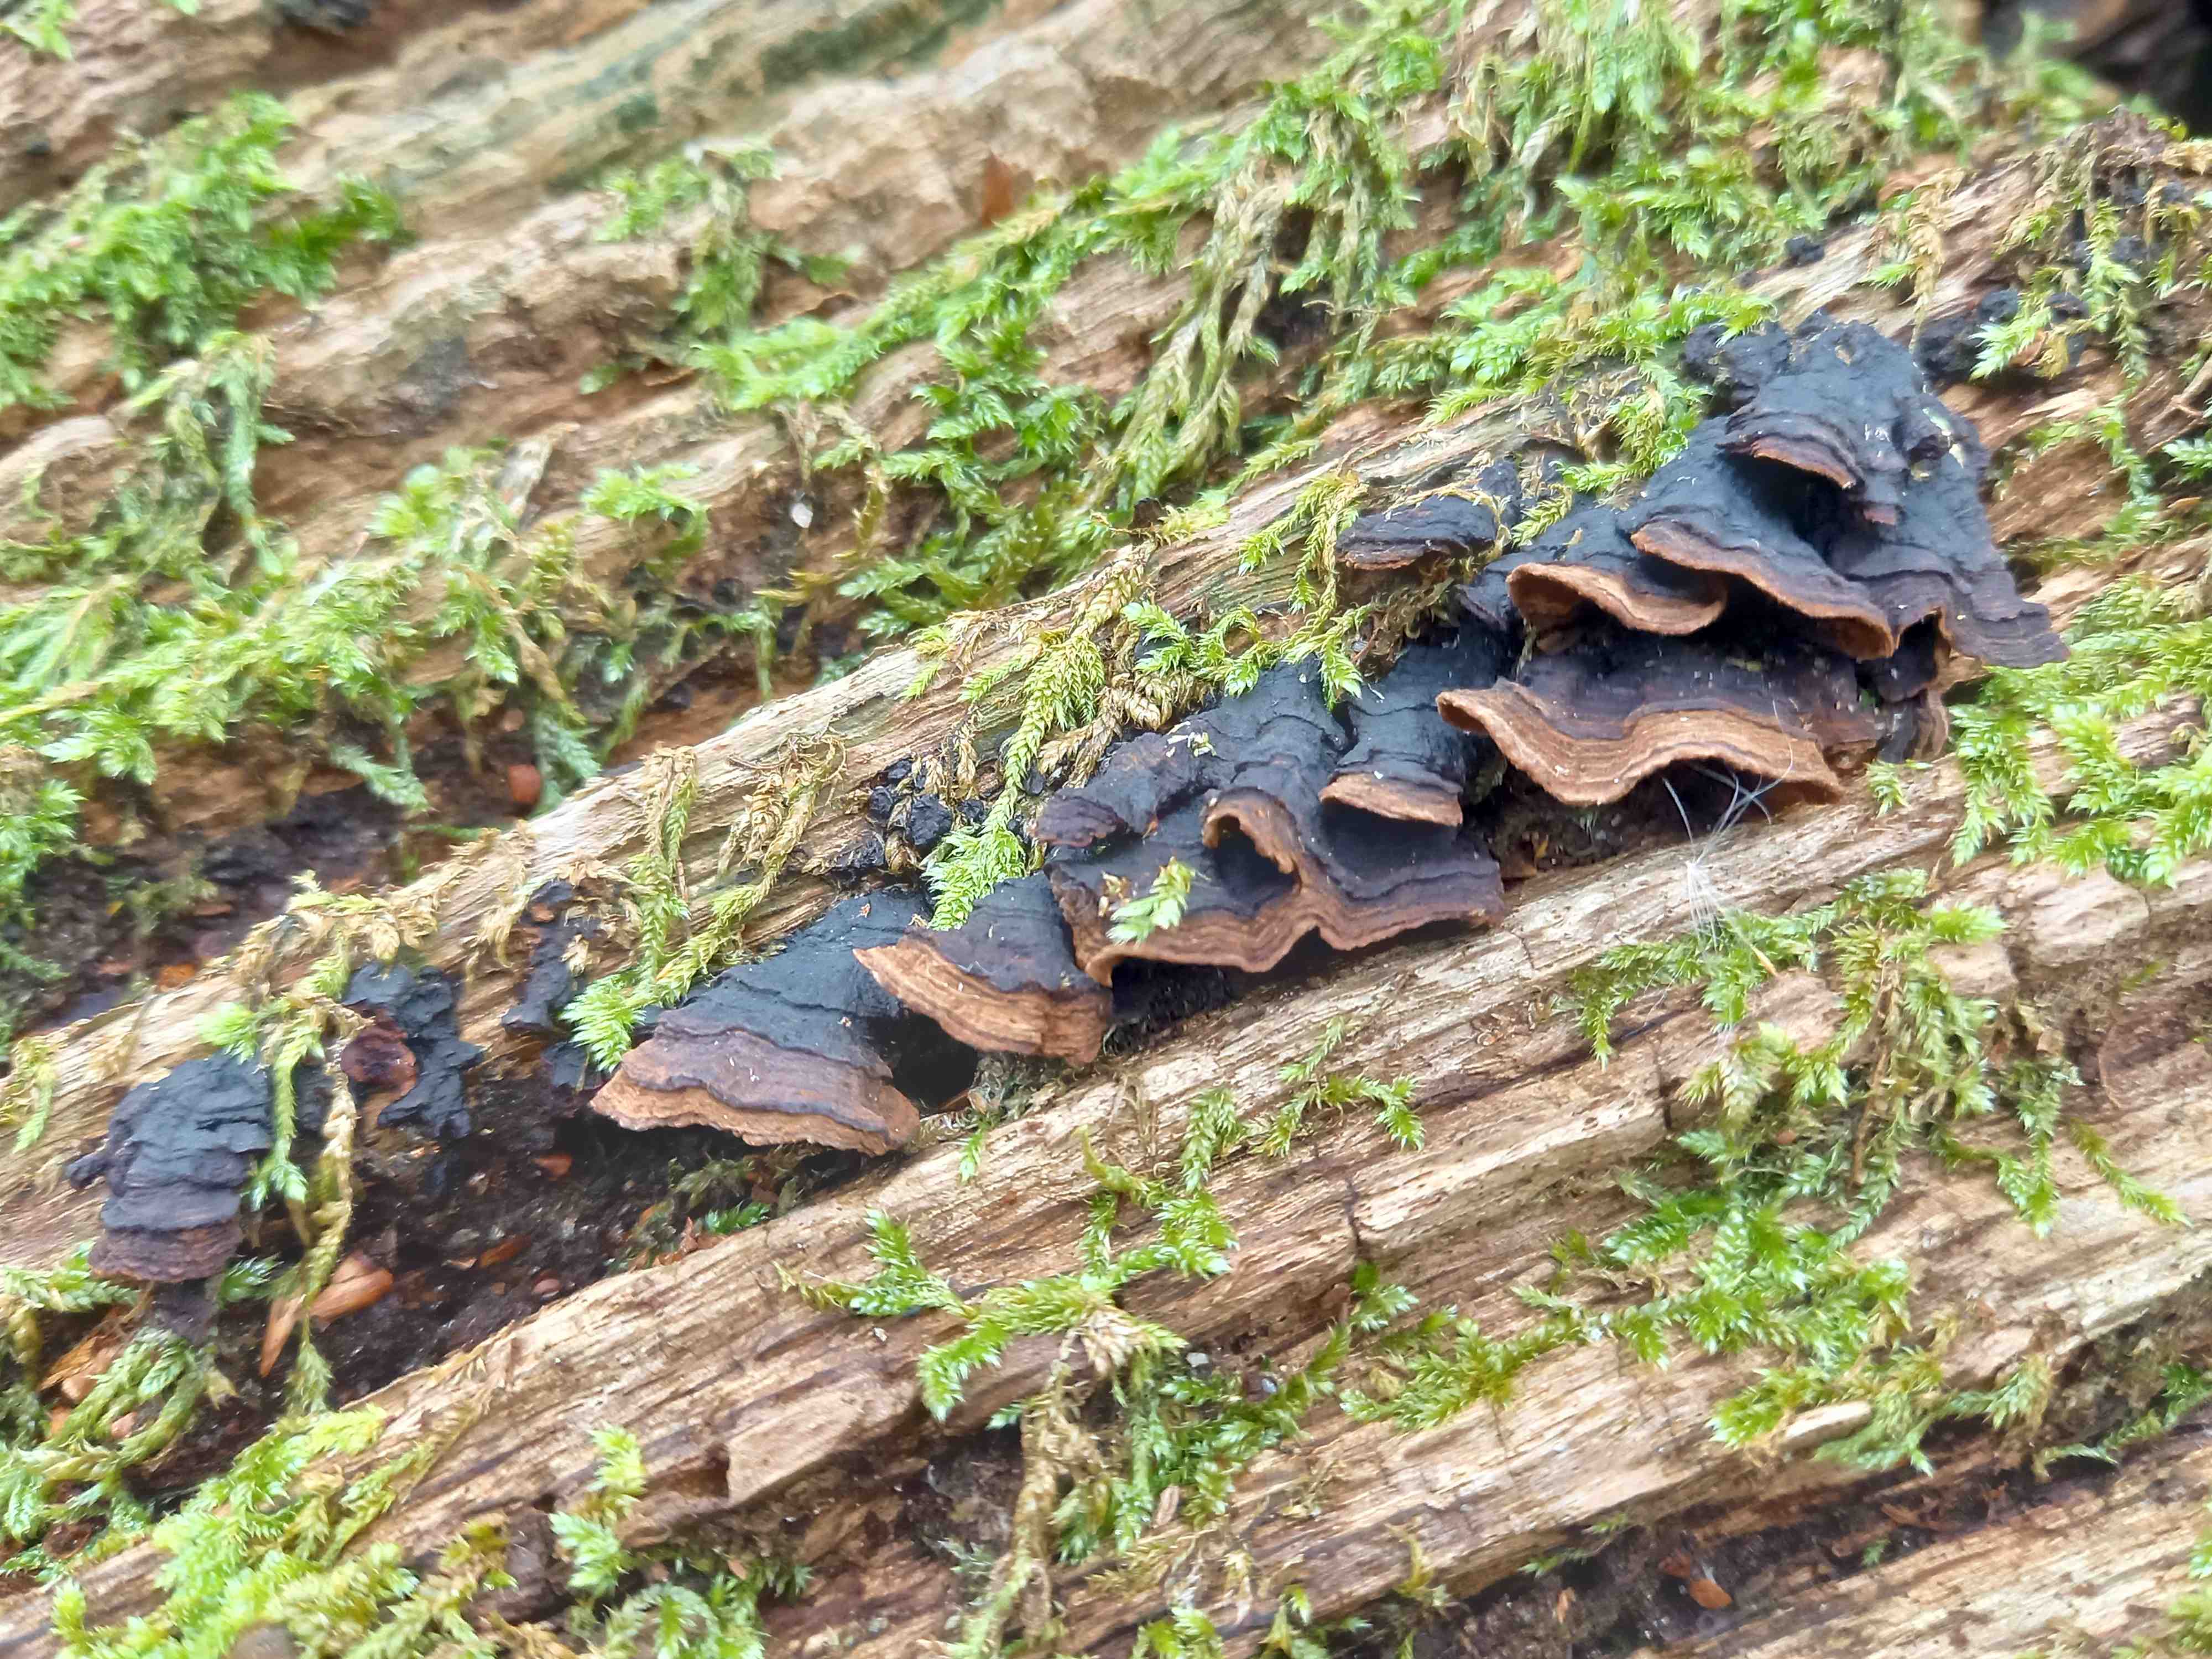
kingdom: Fungi
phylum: Basidiomycota
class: Agaricomycetes
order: Hymenochaetales
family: Hymenochaetaceae
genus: Hymenochaete
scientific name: Hymenochaete rubiginosa
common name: stiv ruslædersvamp
